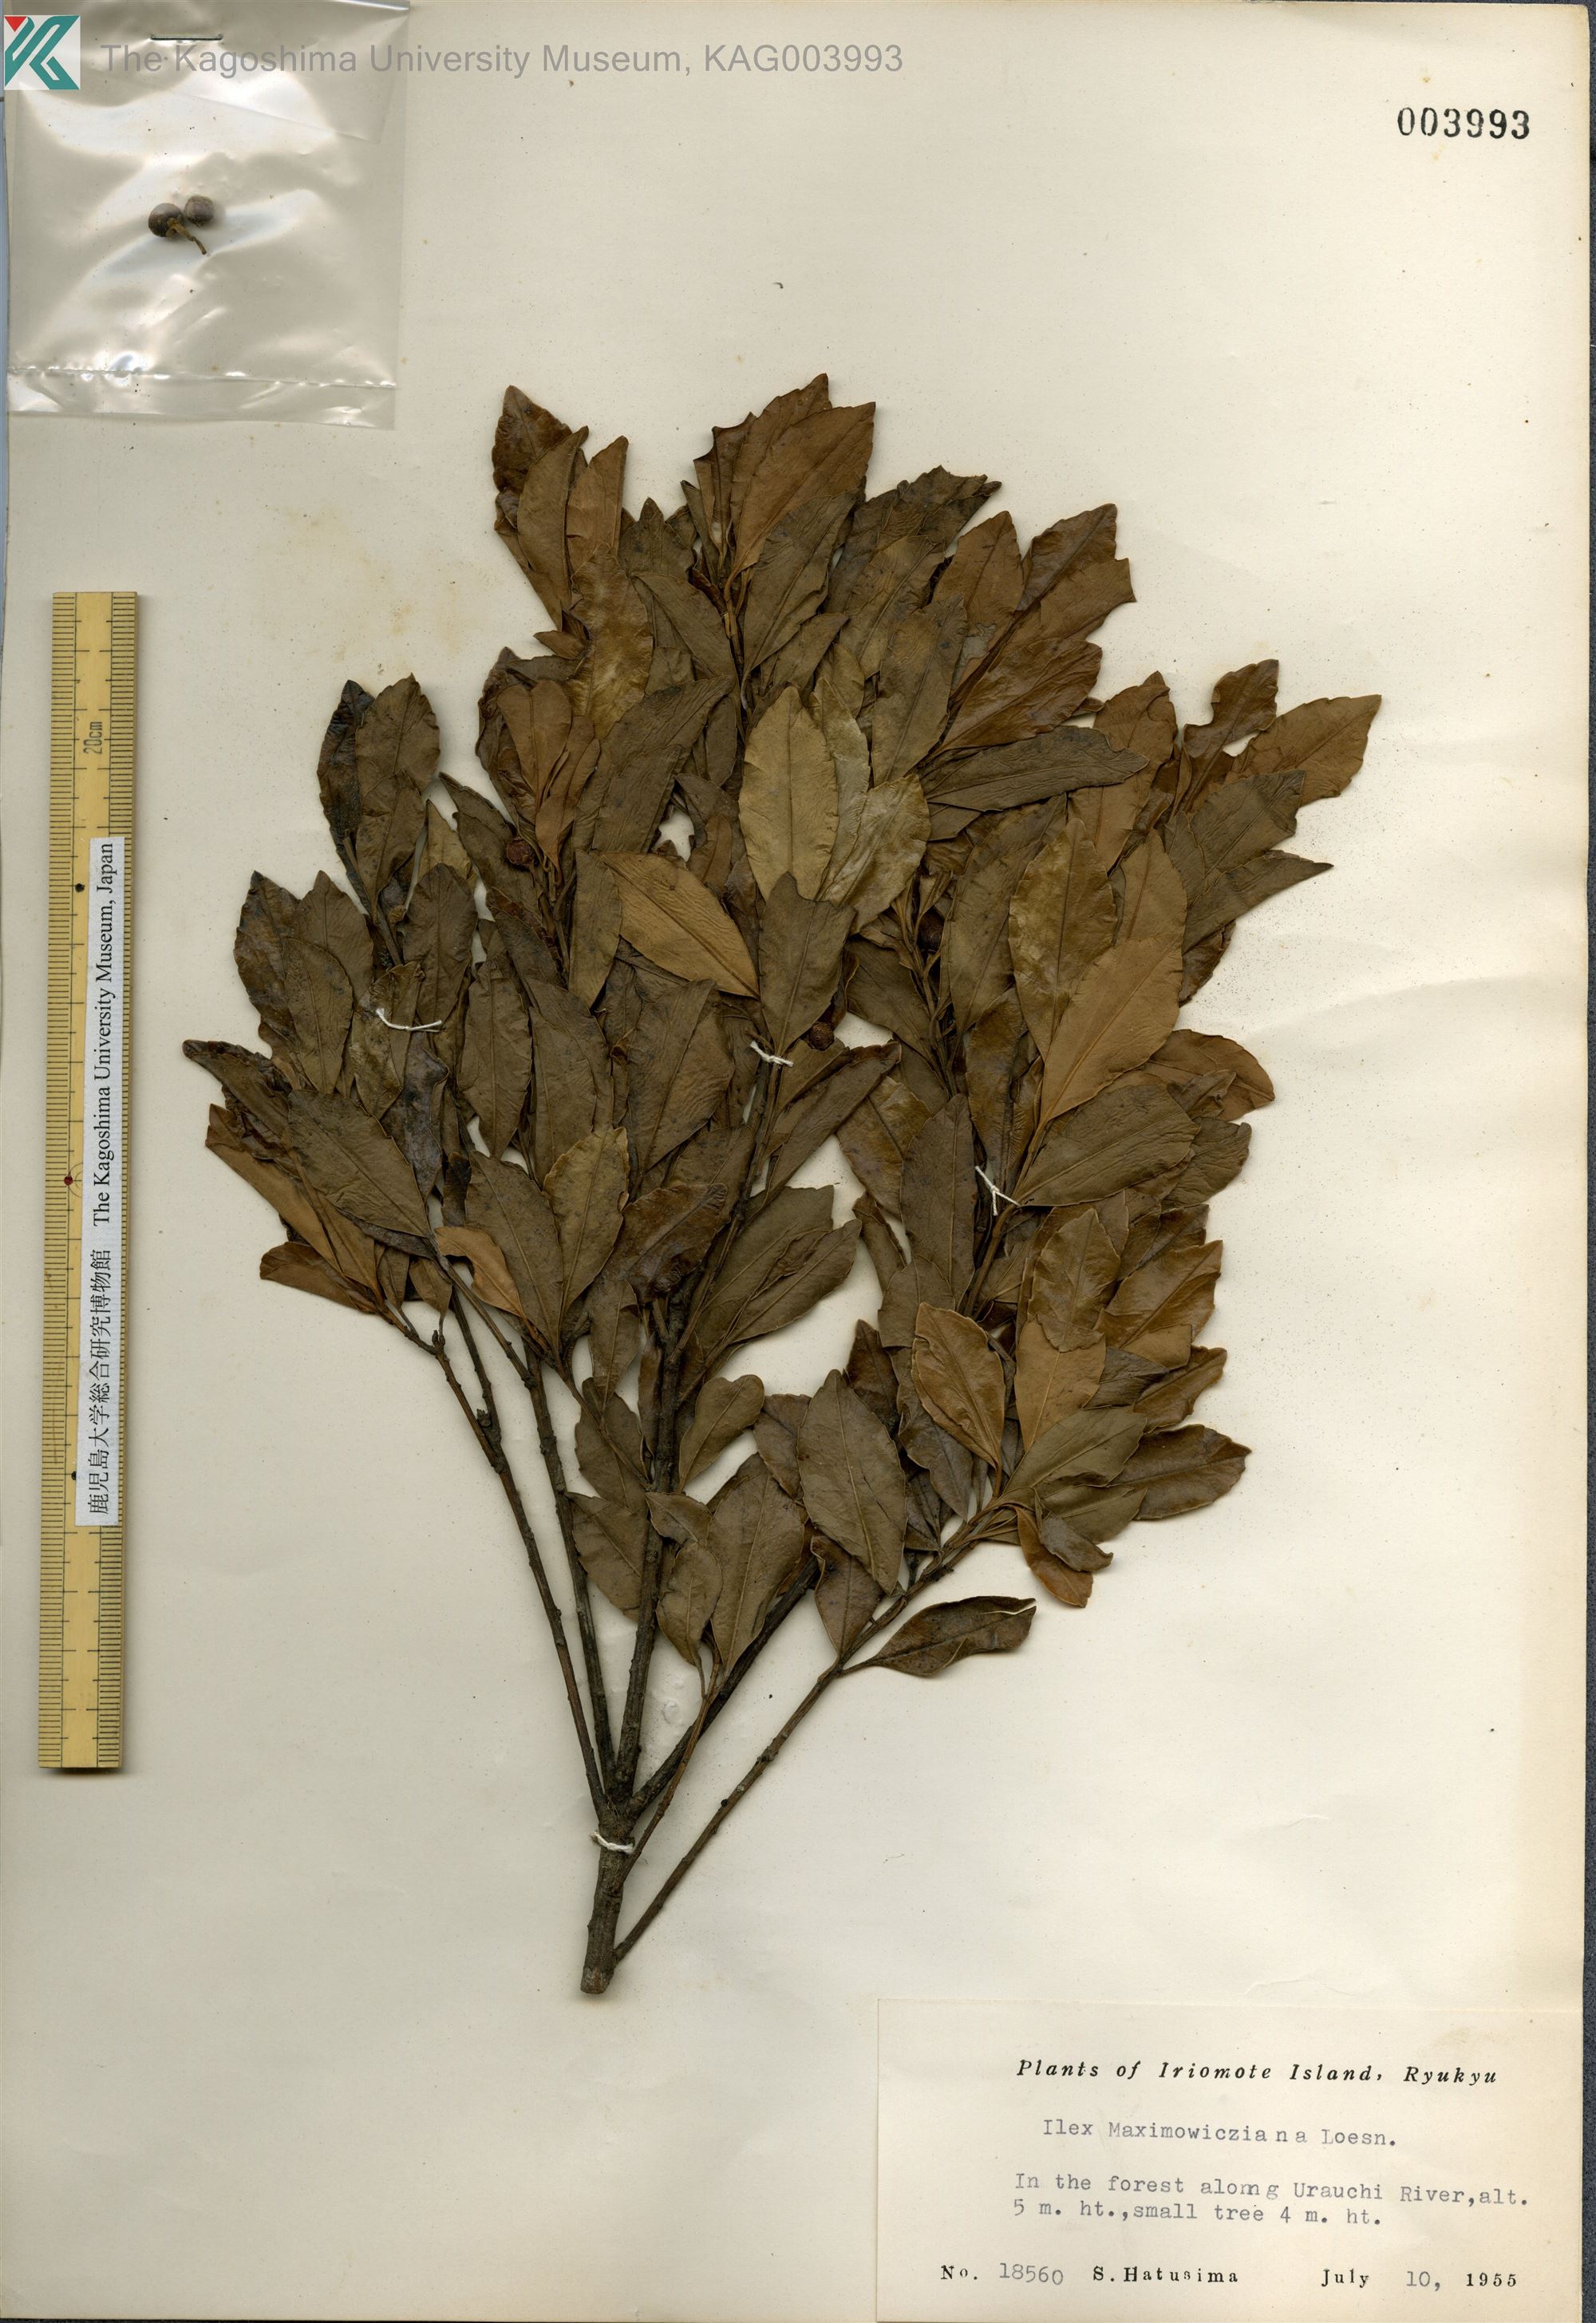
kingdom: Plantae
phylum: Tracheophyta
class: Magnoliopsida
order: Aquifoliales
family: Aquifoliaceae
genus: Ilex
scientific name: Ilex maximowicziana
